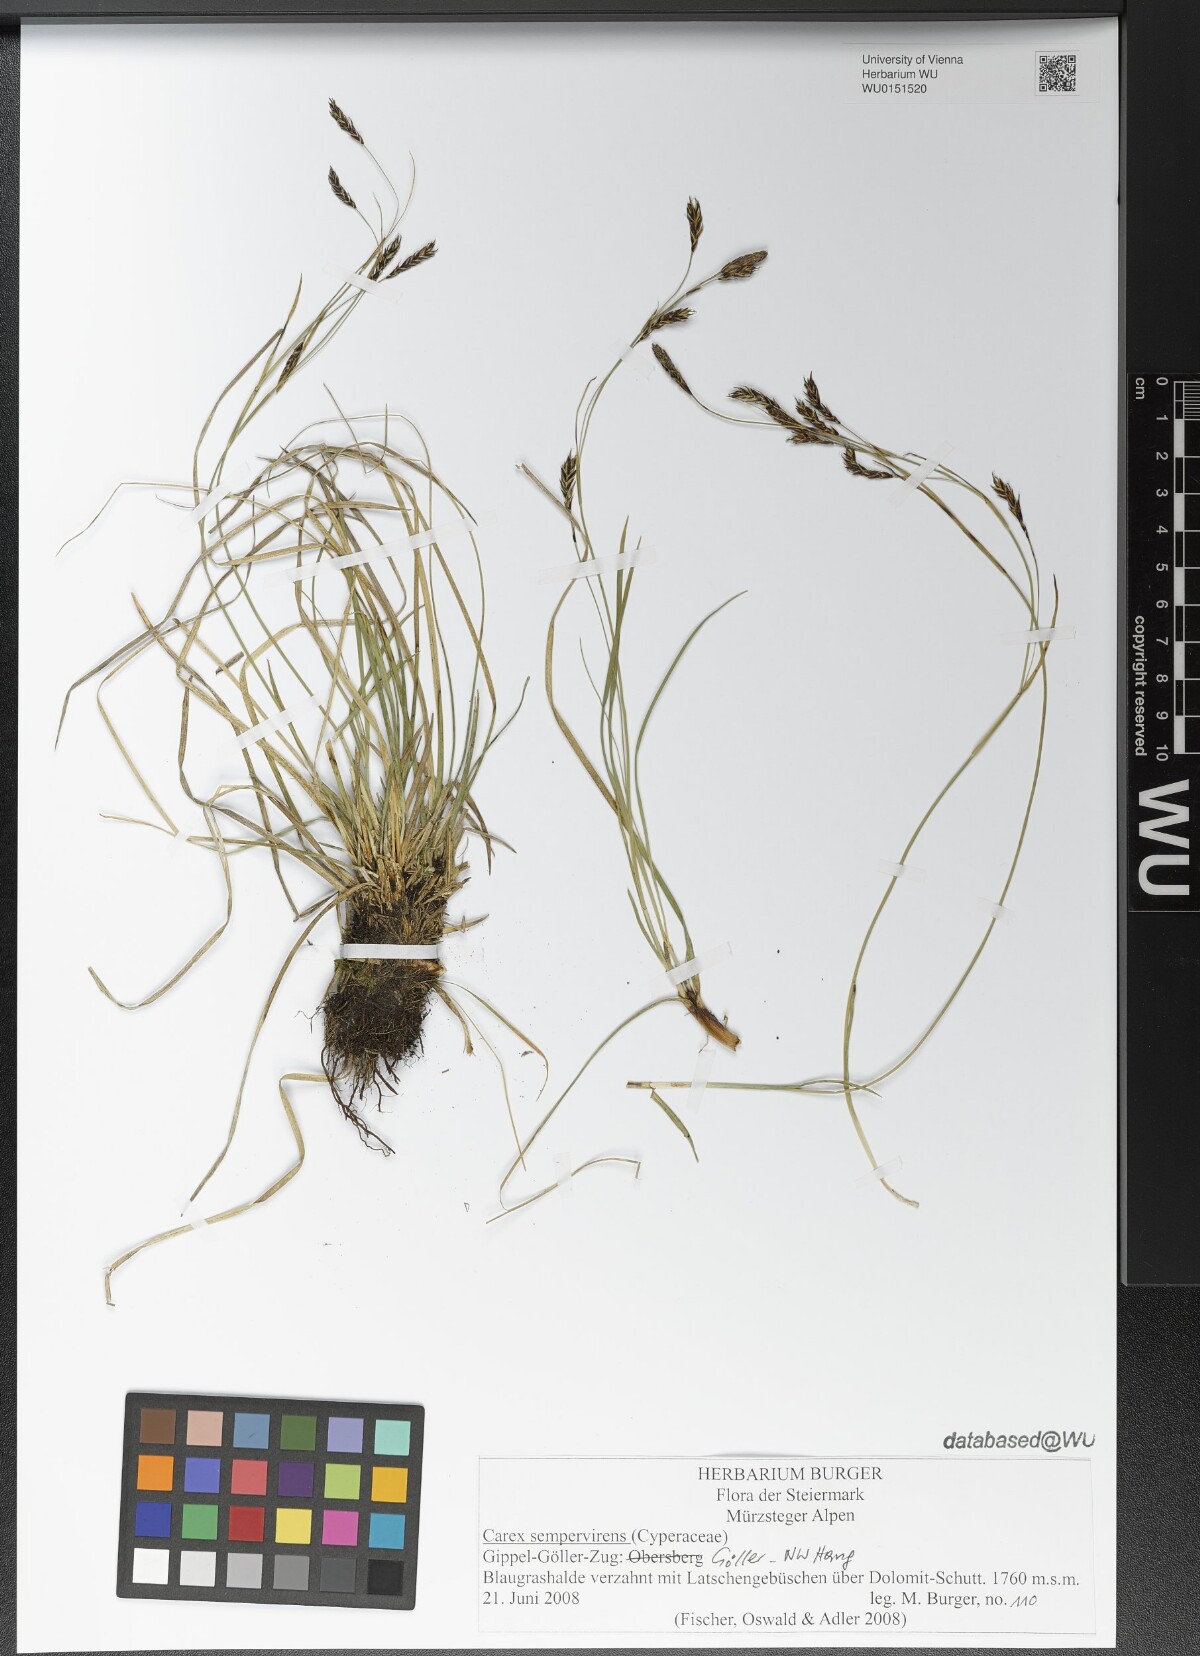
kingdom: Plantae
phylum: Tracheophyta
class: Liliopsida
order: Poales
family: Cyperaceae
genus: Carex
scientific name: Carex sempervirens
